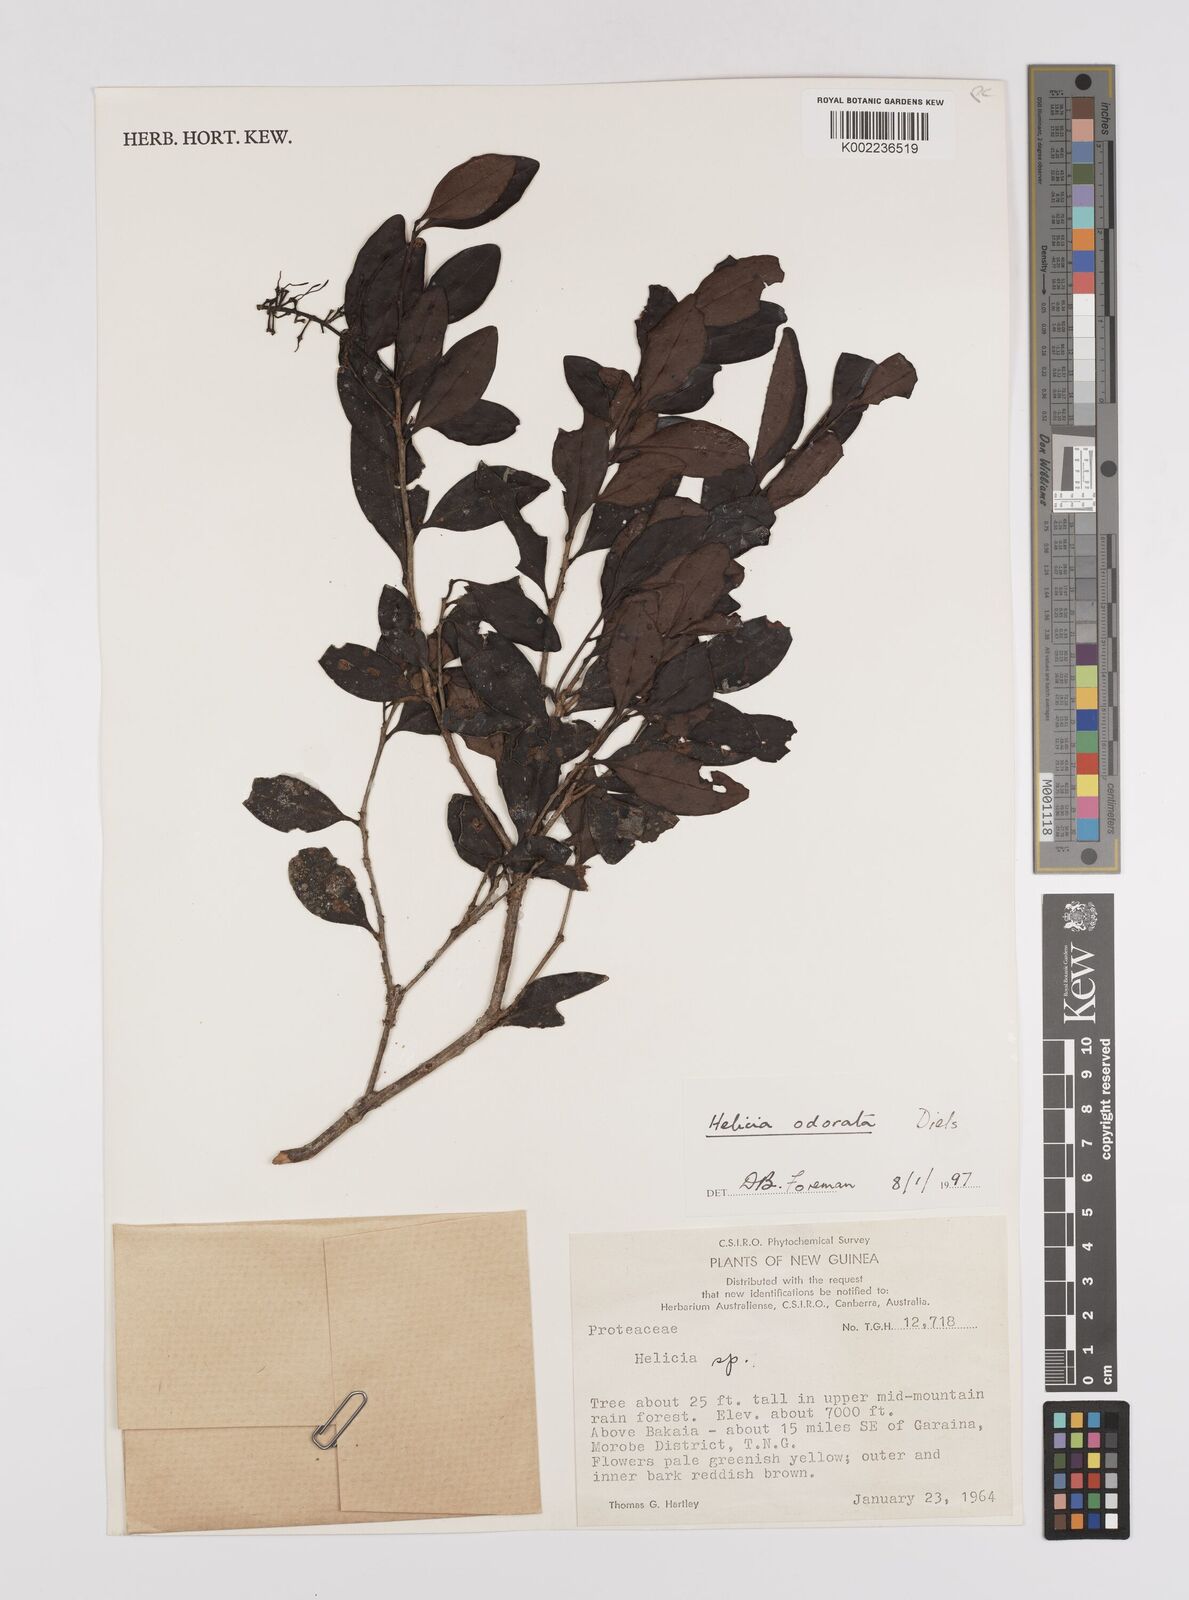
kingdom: Plantae
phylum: Tracheophyta
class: Magnoliopsida
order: Proteales
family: Proteaceae
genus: Helicia
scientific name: Helicia odorata
